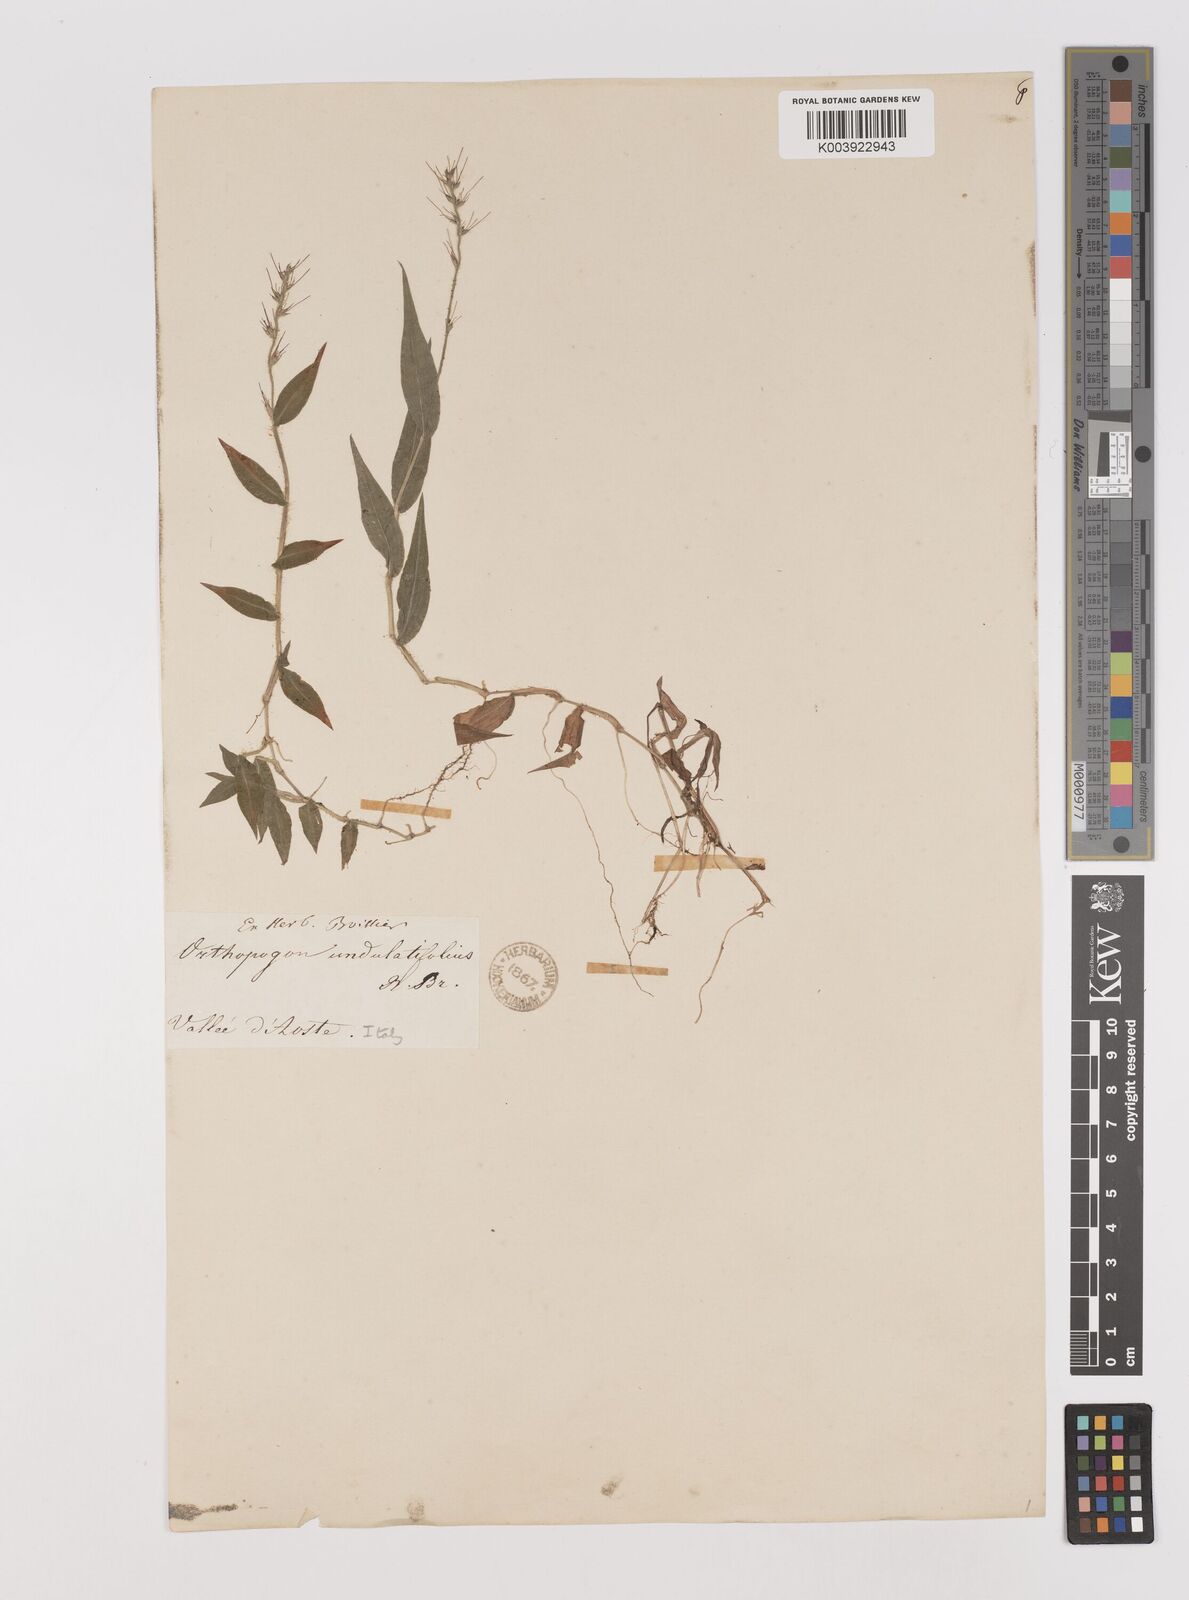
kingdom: Plantae
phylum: Tracheophyta
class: Liliopsida
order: Poales
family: Poaceae
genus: Oplismenus
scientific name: Oplismenus undulatifolius
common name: Wavyleaf basketgrass
